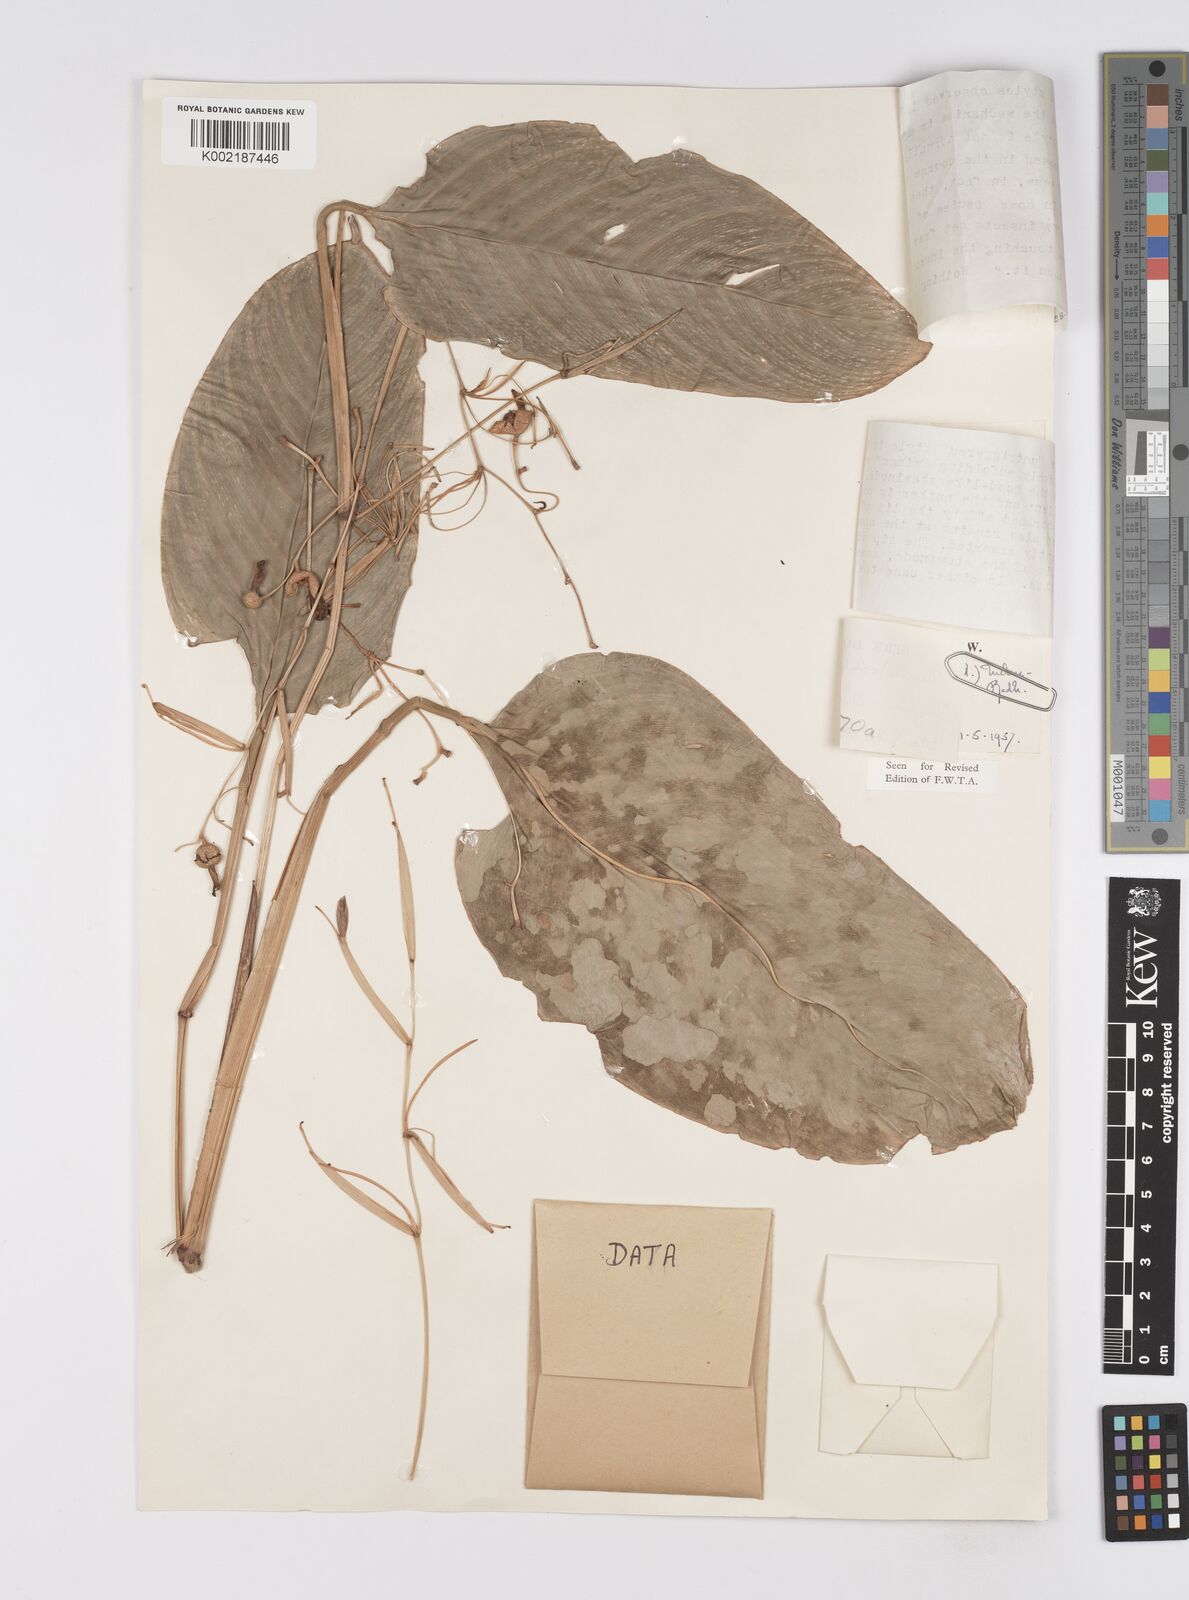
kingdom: Plantae
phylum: Tracheophyta
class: Liliopsida
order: Zingiberales
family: Marantaceae
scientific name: Marantaceae
